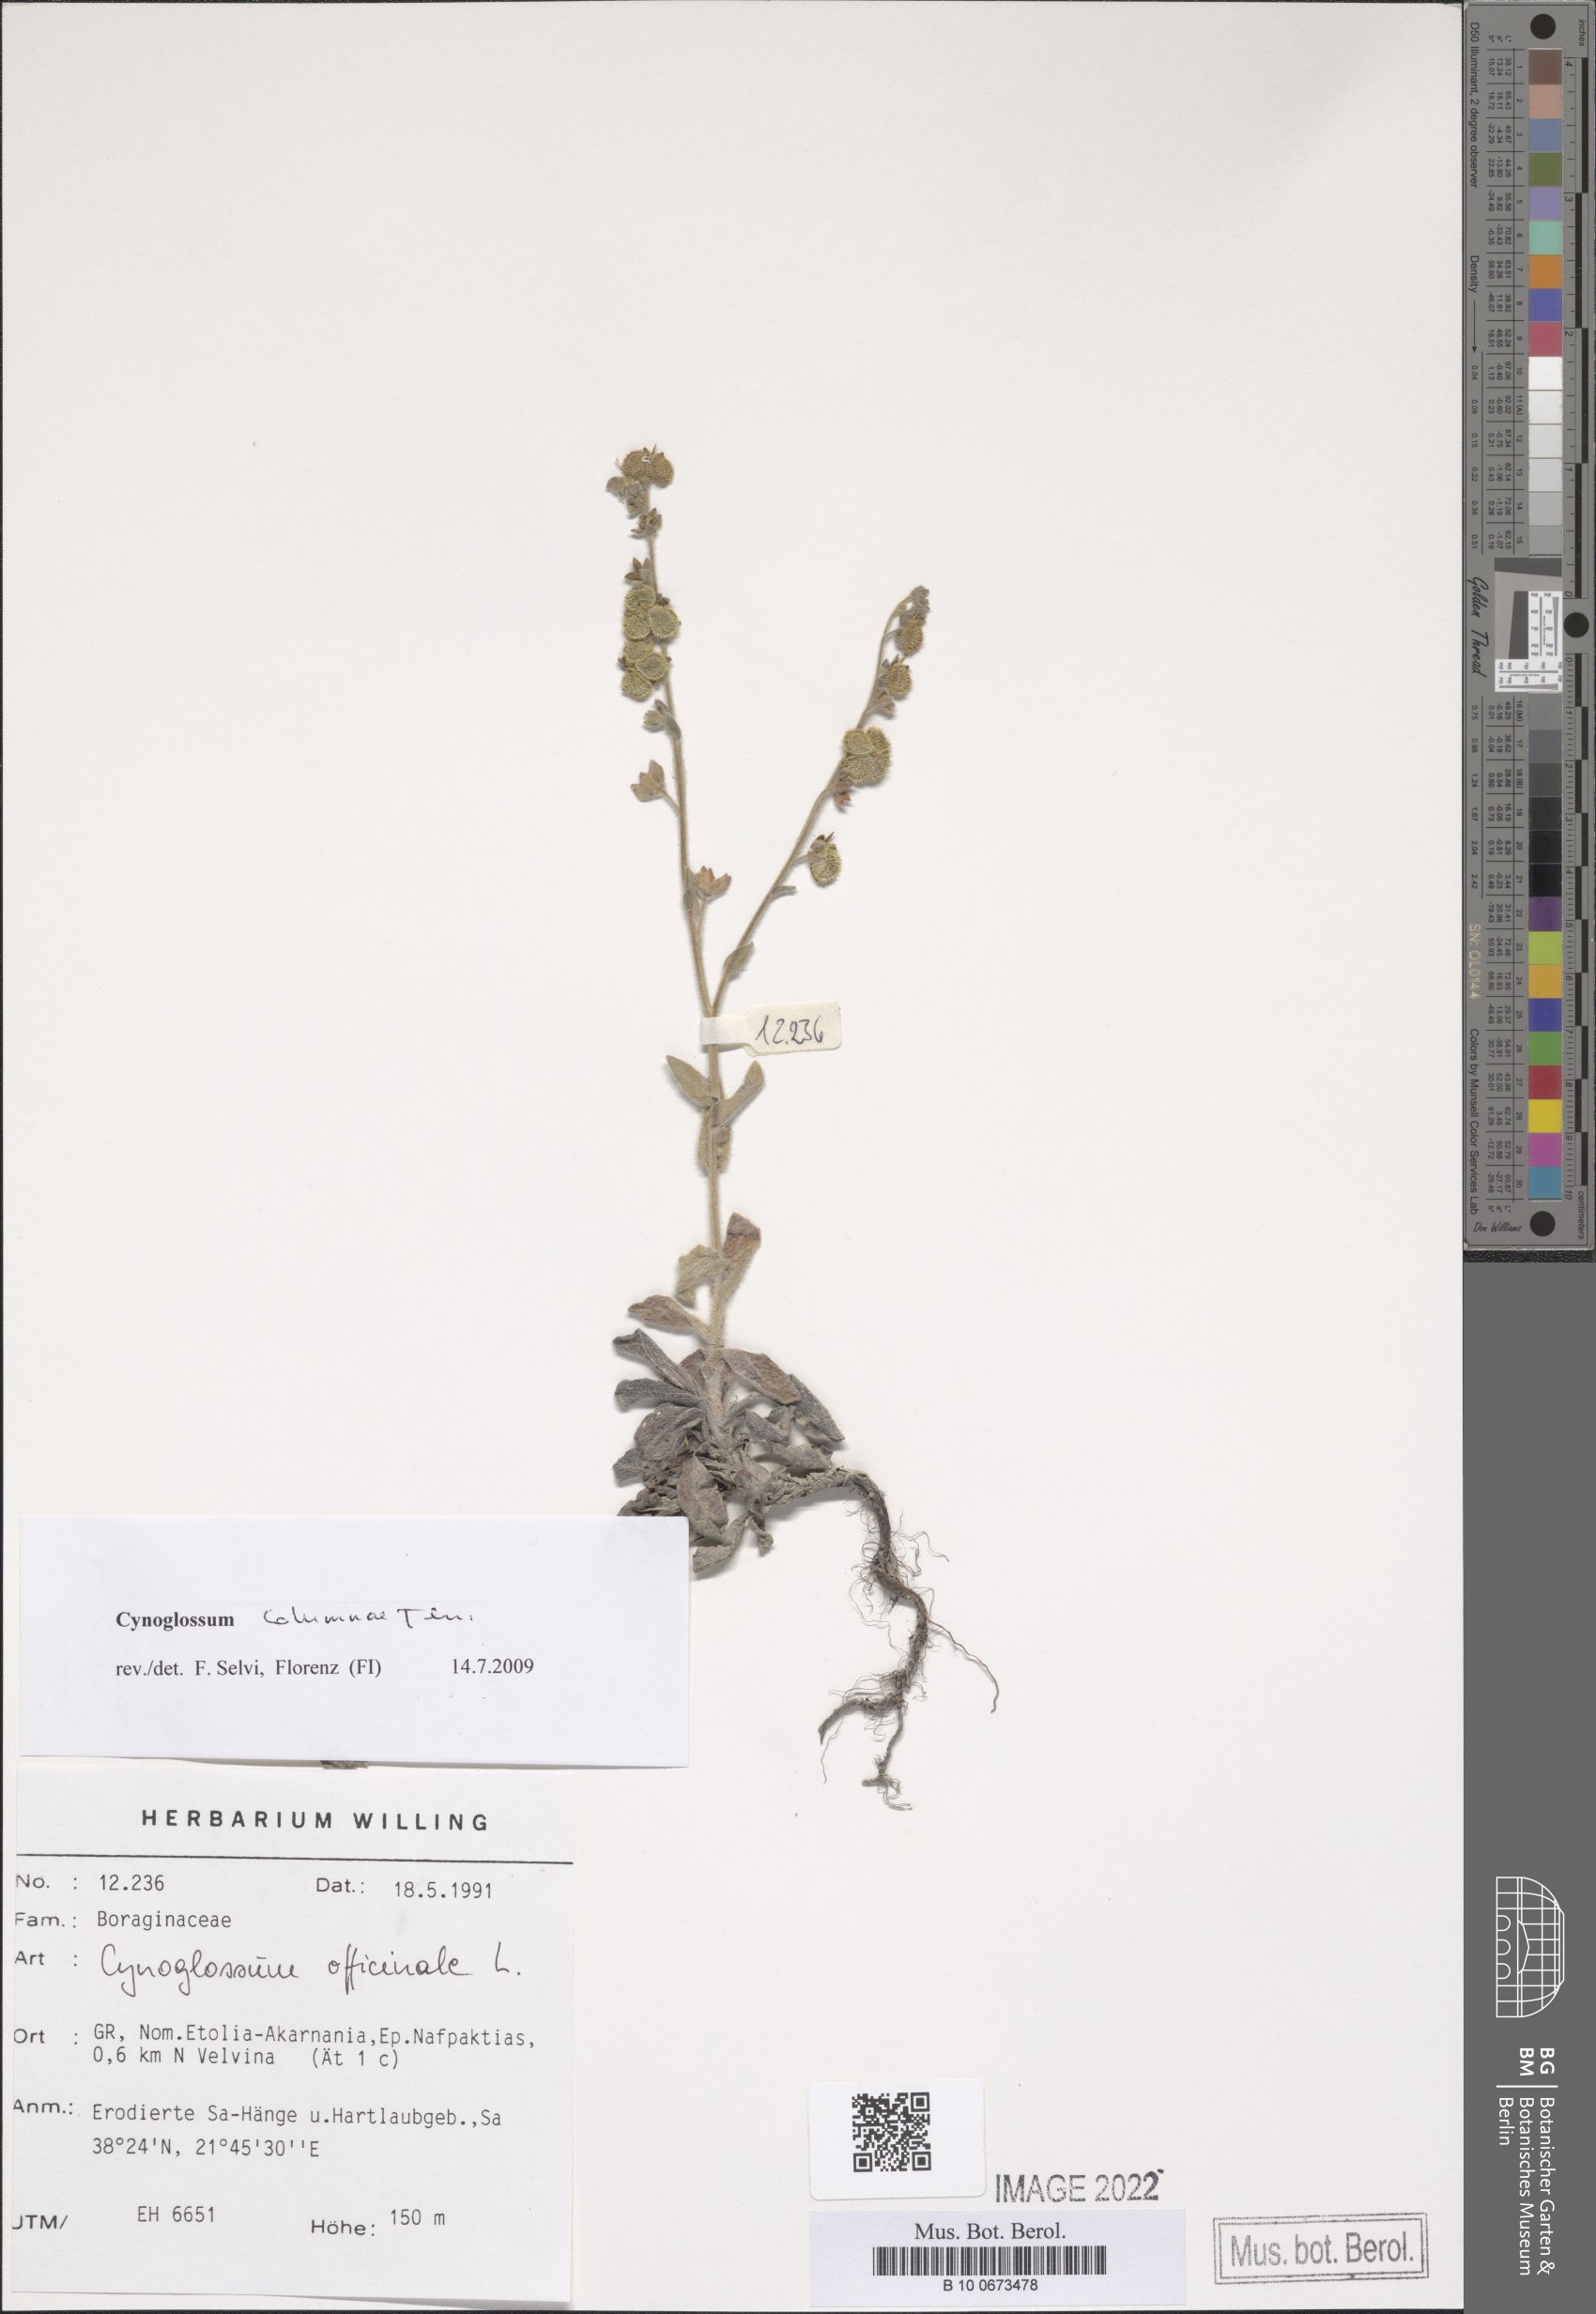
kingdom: Plantae
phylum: Tracheophyta
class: Magnoliopsida
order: Boraginales
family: Boraginaceae
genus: Rindera
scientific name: Rindera columnae
